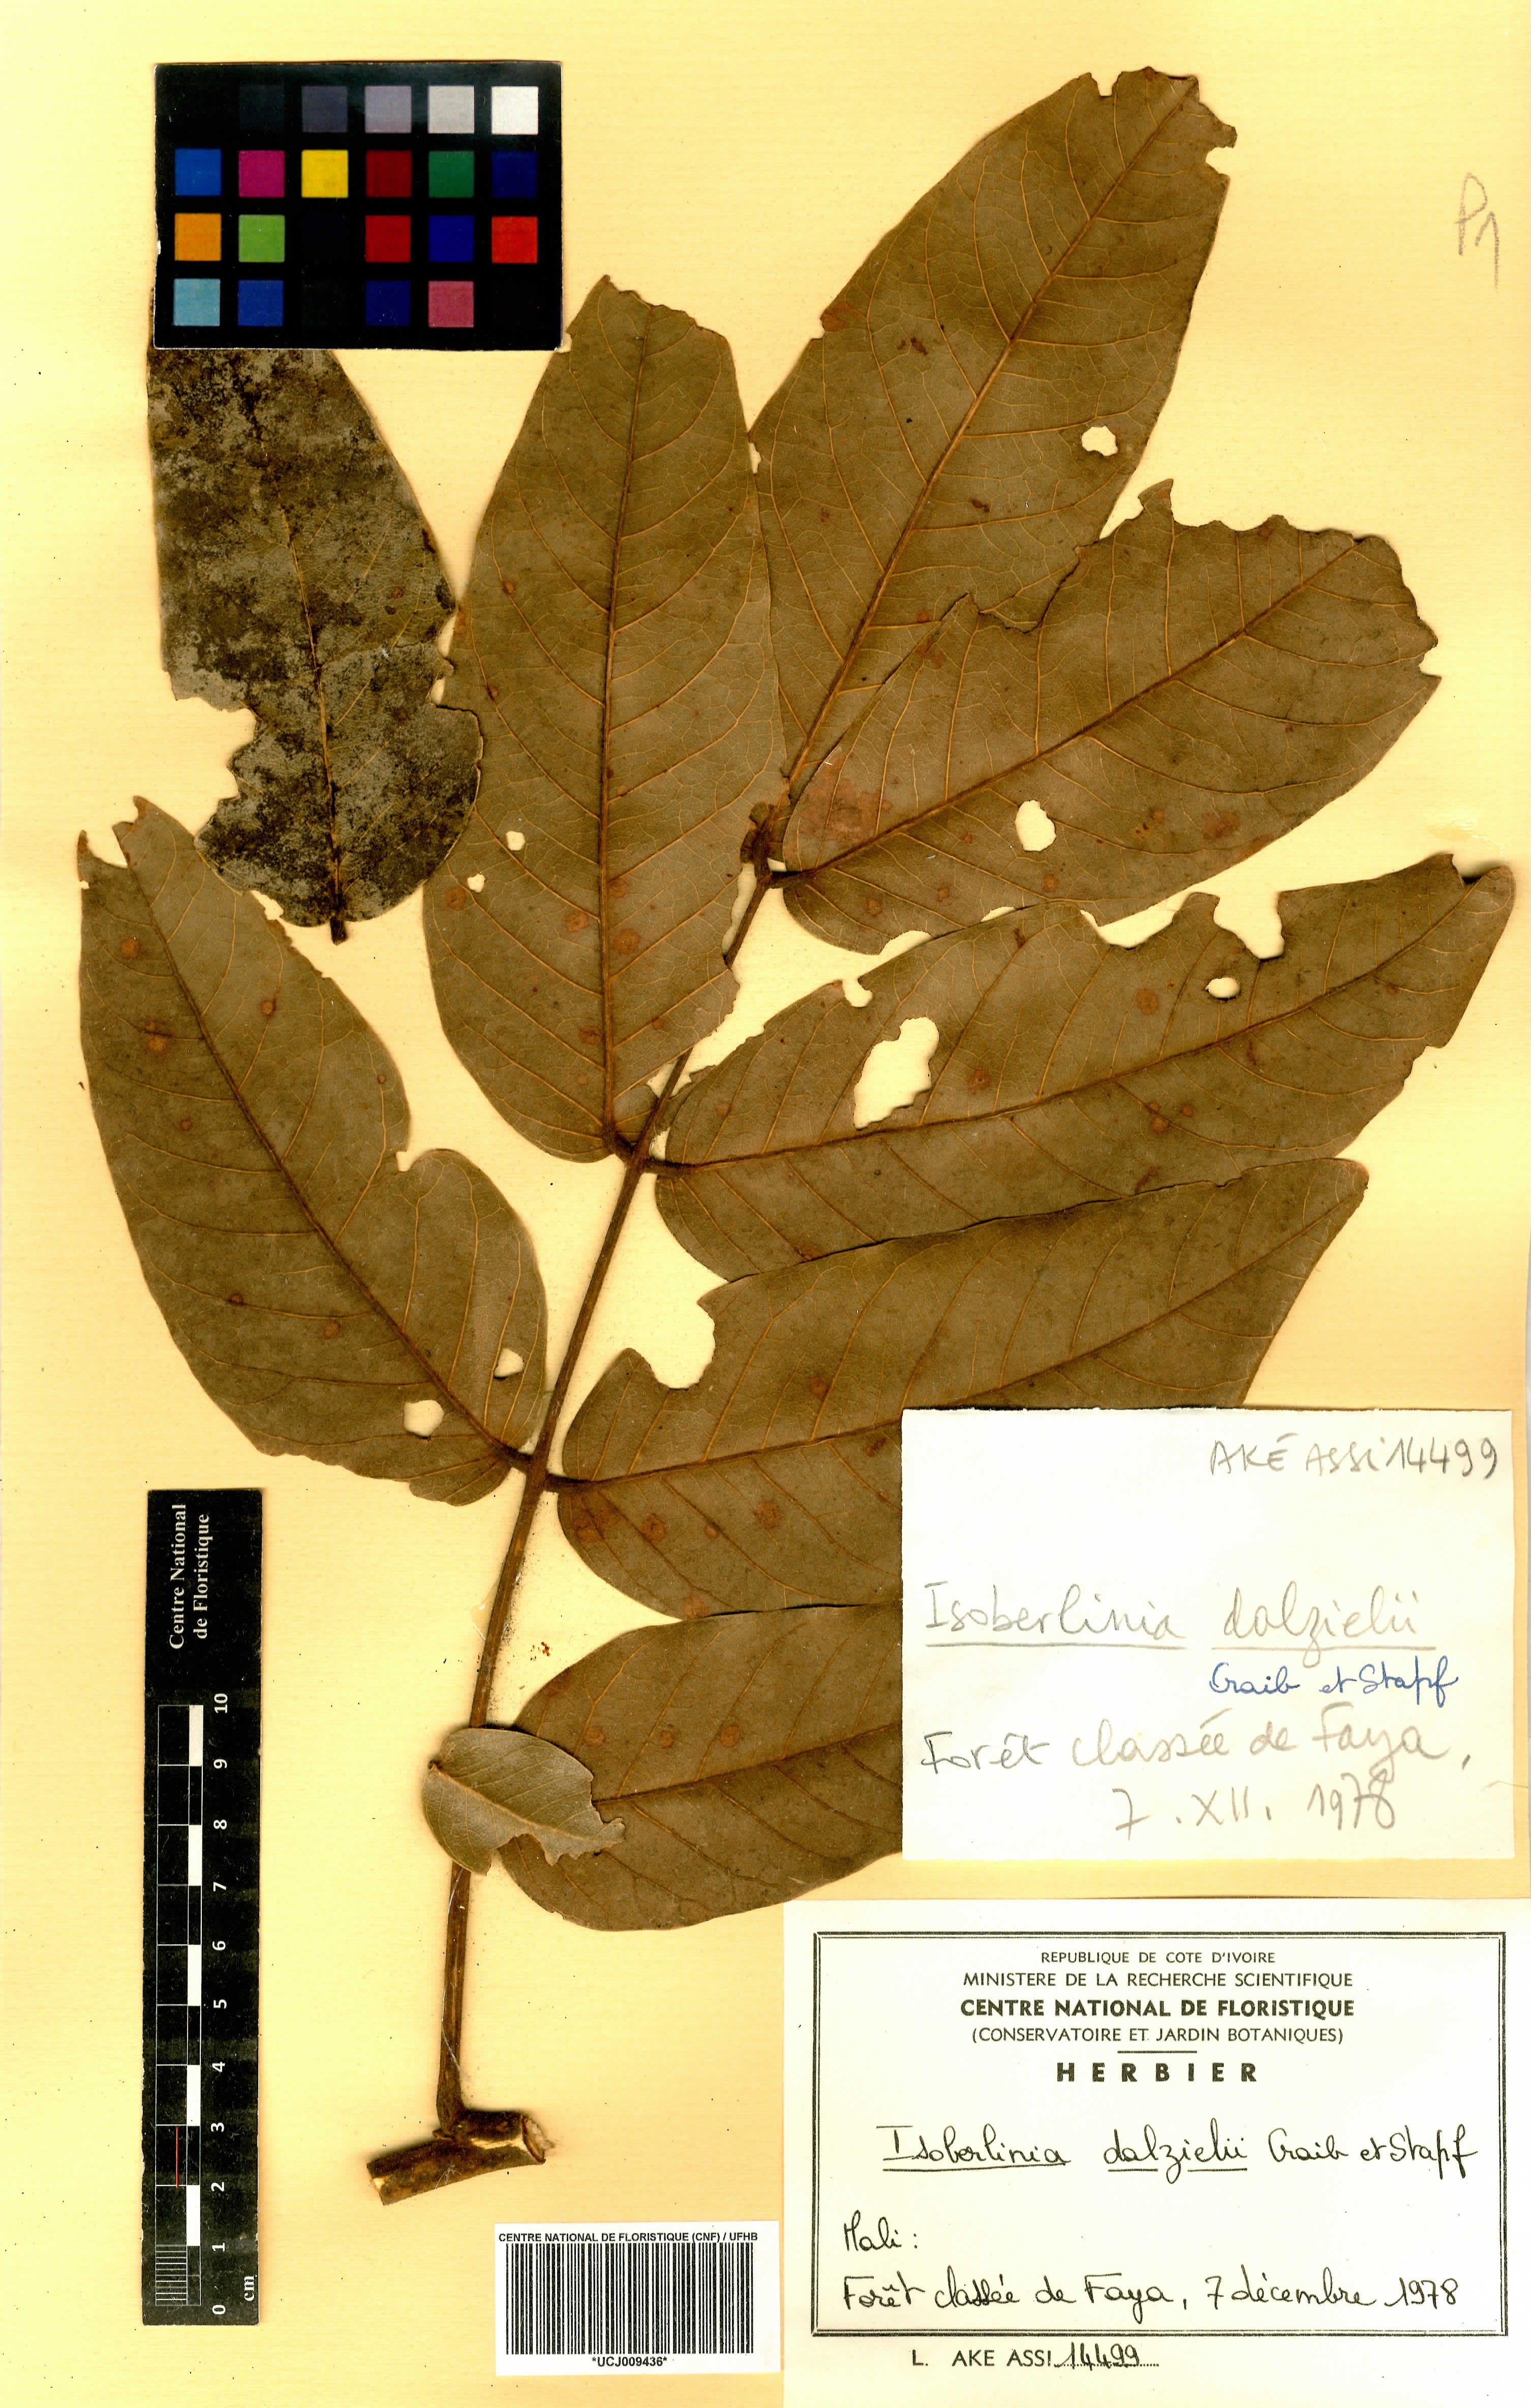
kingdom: Plantae
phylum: Tracheophyta
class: Magnoliopsida
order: Fabales
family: Fabaceae
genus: Isoberlinia
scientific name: Isoberlinia tomentosa
